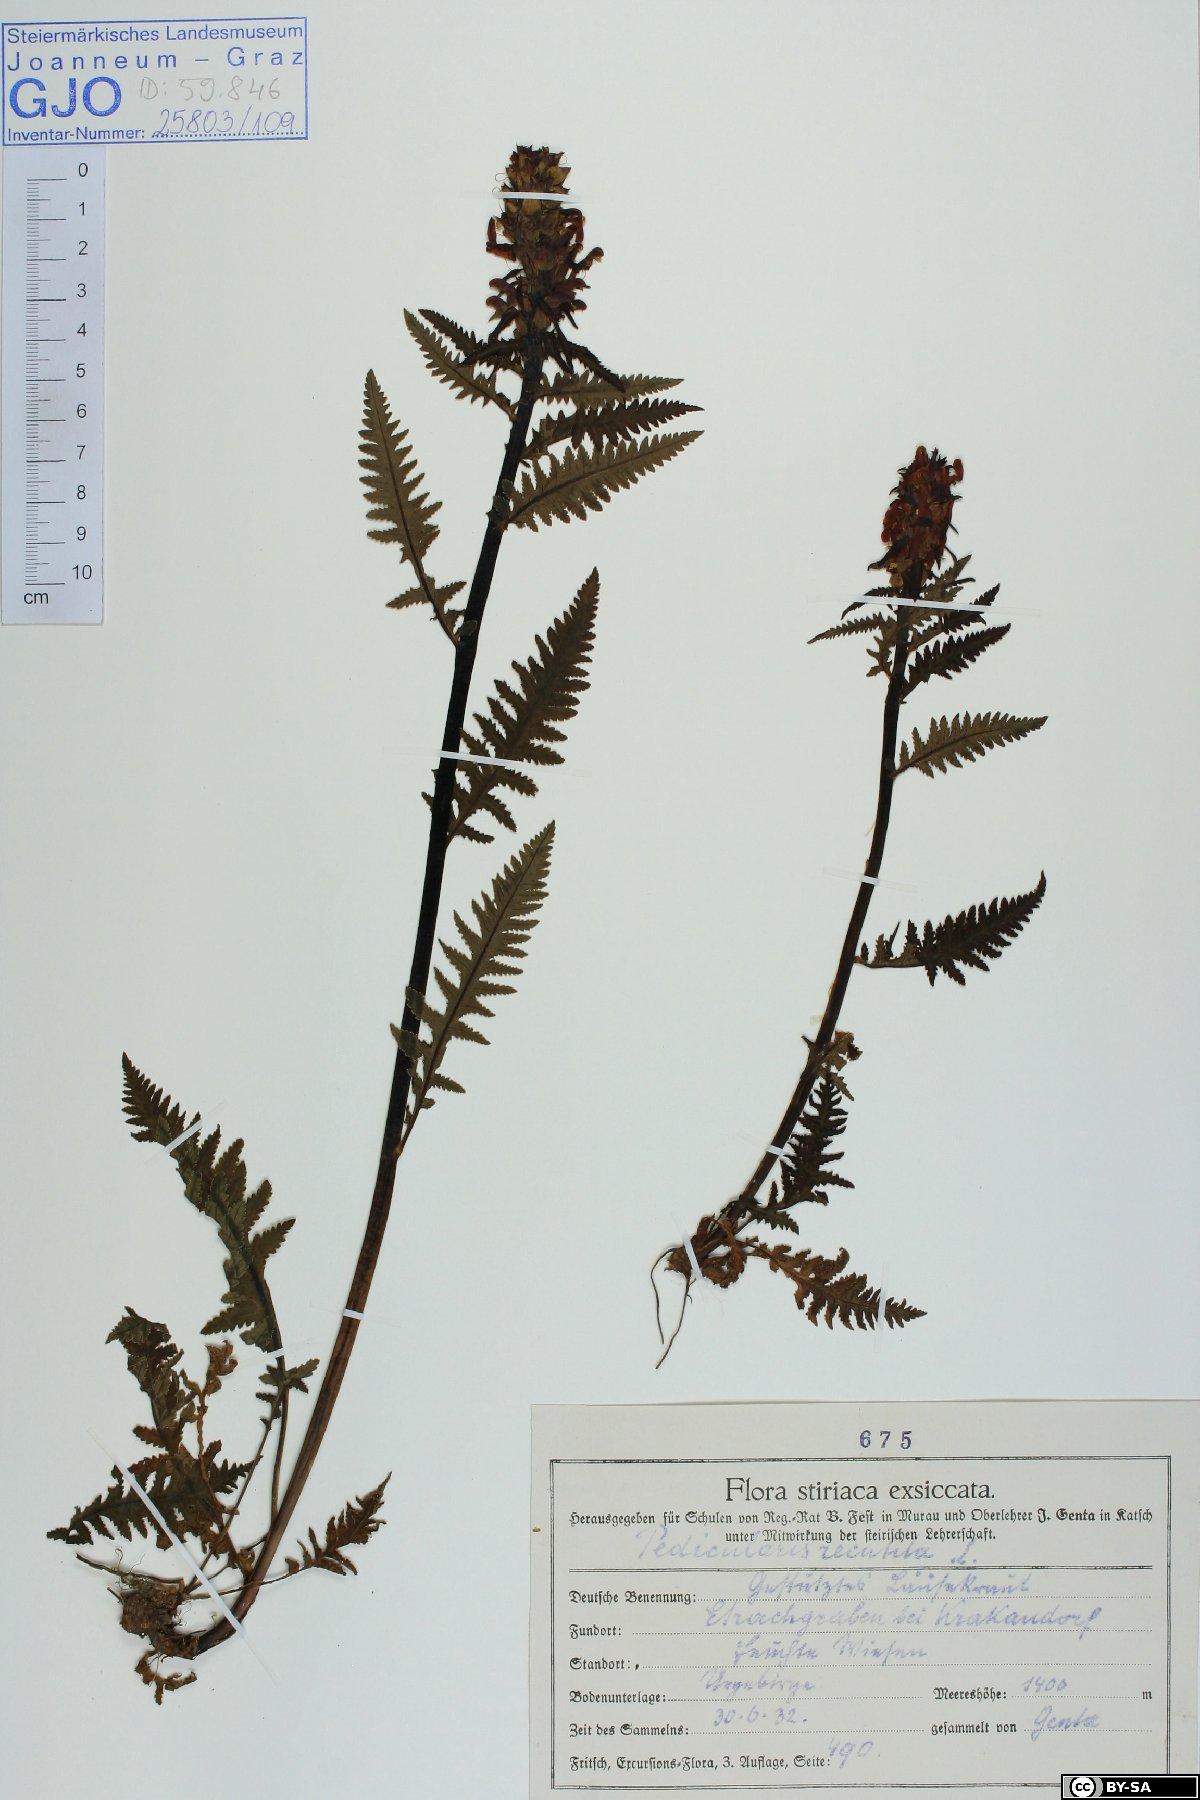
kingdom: Plantae
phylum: Tracheophyta
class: Magnoliopsida
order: Lamiales
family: Orobanchaceae
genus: Pedicularis
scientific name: Pedicularis recutita
